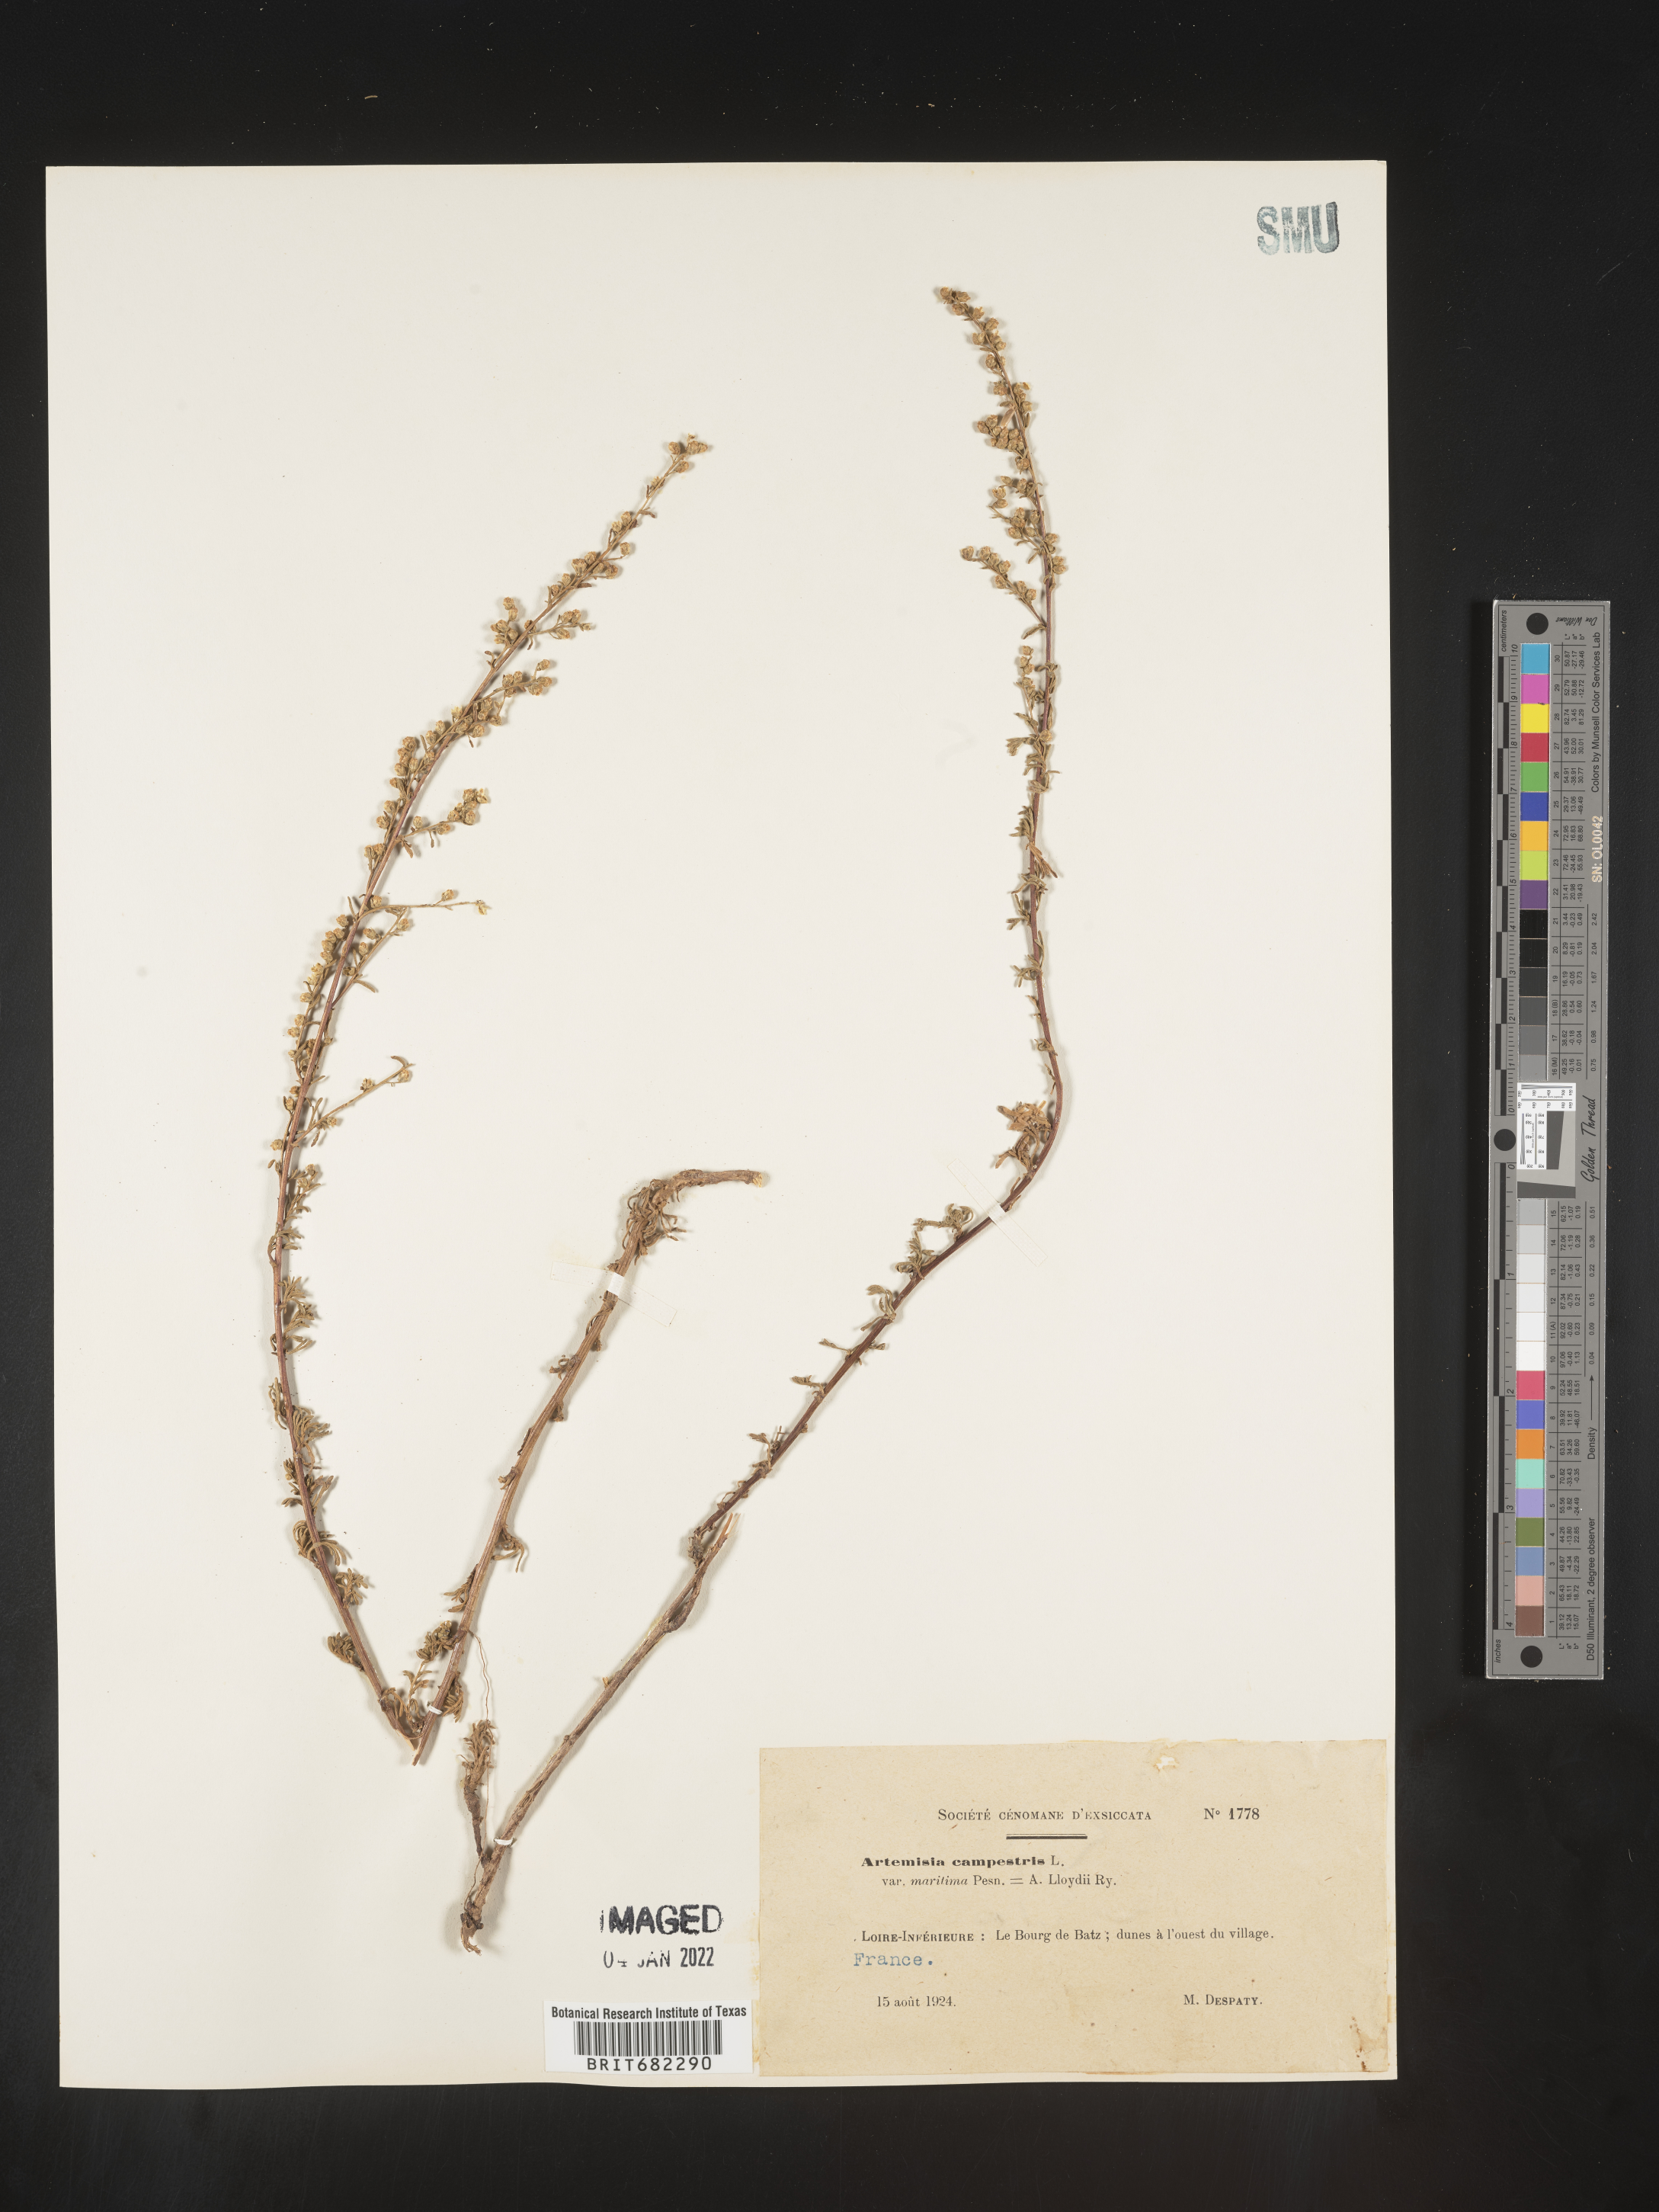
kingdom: Plantae
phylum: Tracheophyta
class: Magnoliopsida
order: Asterales
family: Asteraceae
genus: Artemisia
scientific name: Artemisia campestris
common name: Field wormwood
